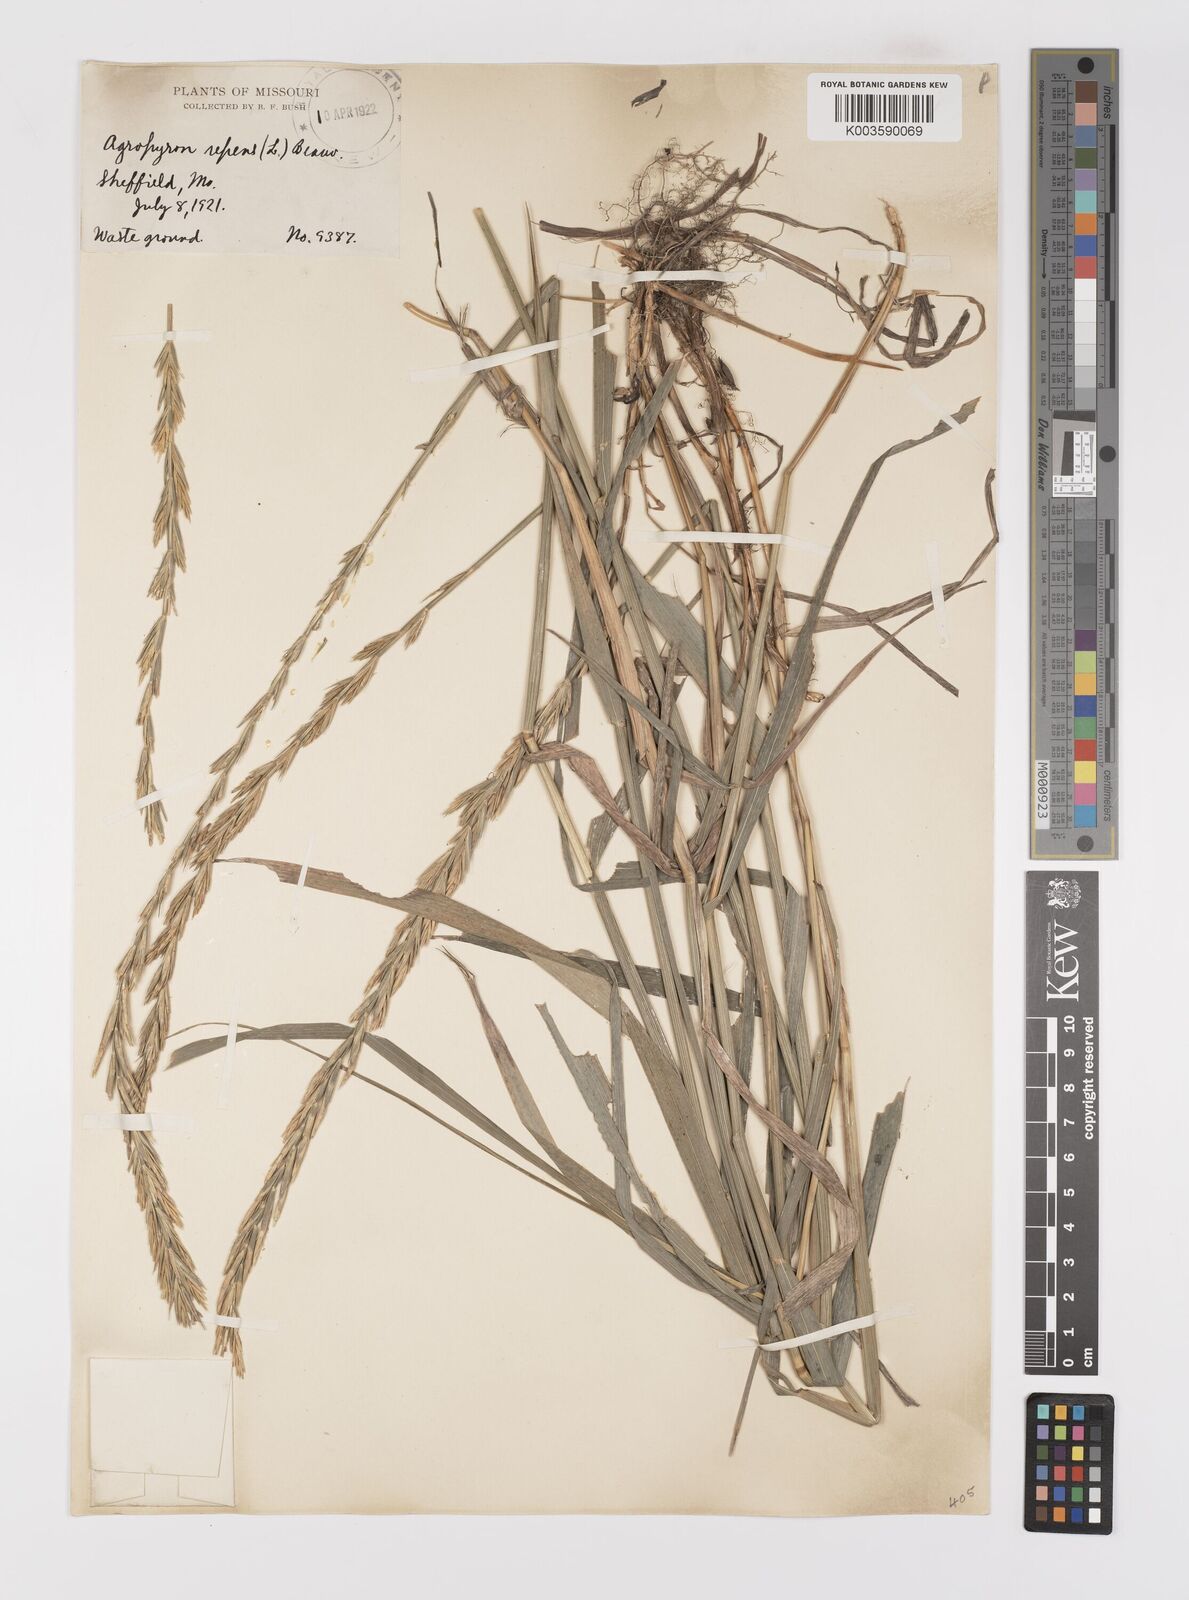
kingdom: Plantae
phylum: Tracheophyta
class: Liliopsida
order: Poales
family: Poaceae
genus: Elymus
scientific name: Elymus repens
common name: Quackgrass
